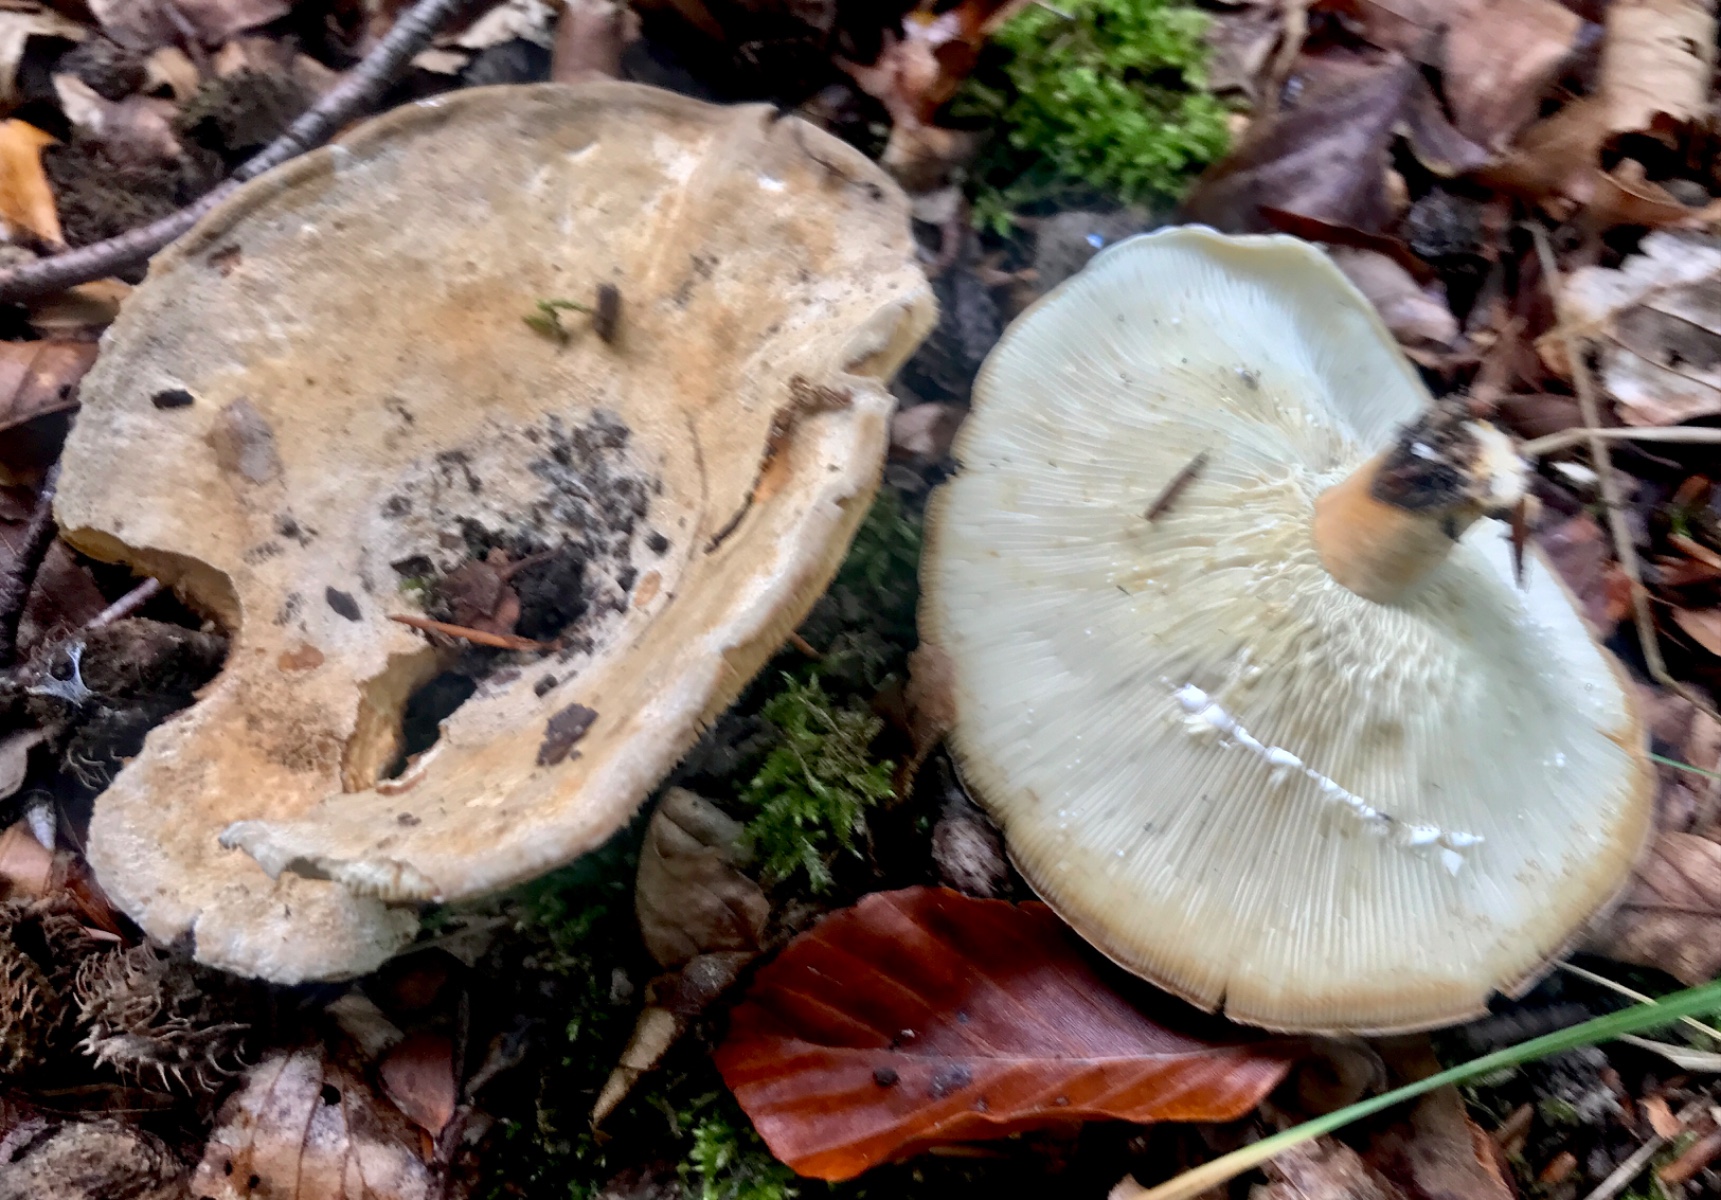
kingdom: Fungi
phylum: Basidiomycota
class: Agaricomycetes
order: Russulales
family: Russulaceae
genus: Lactarius
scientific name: Lactarius acerrimus
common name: brændende mælkehat
